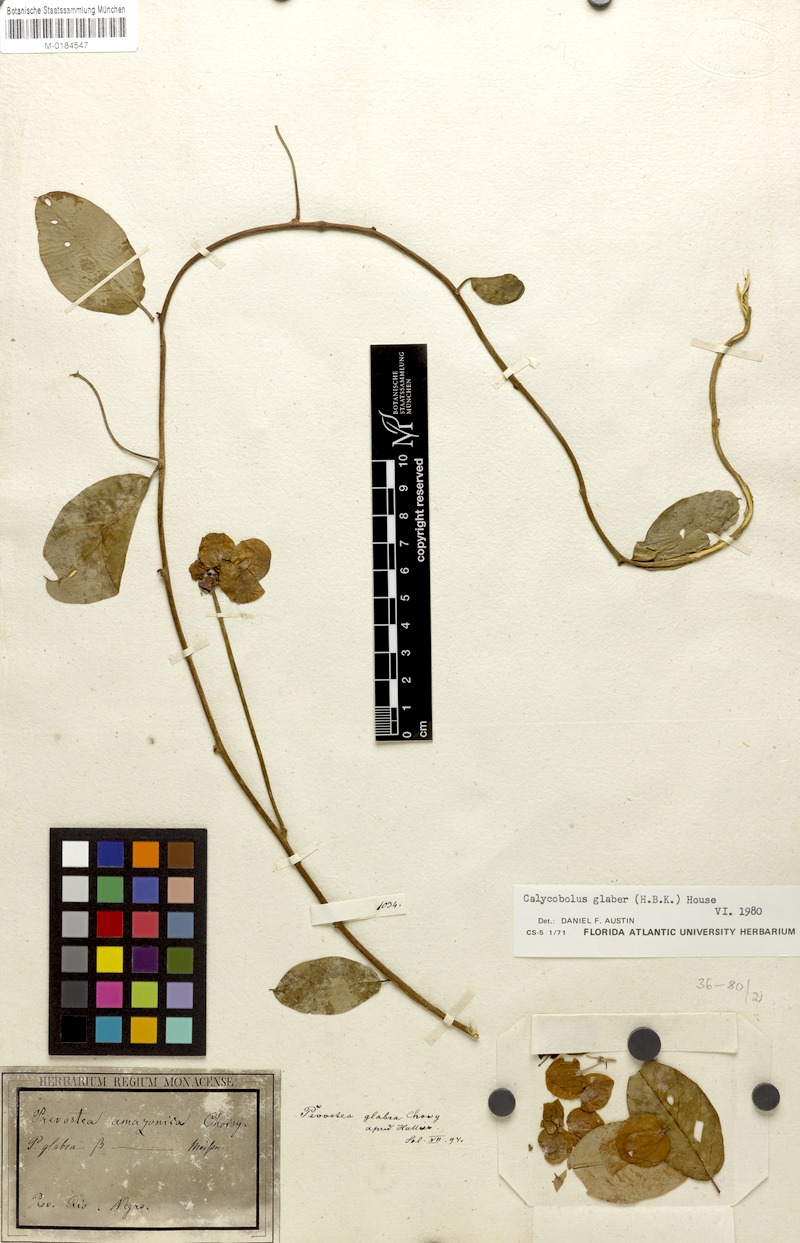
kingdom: Plantae
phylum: Tracheophyta
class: Magnoliopsida
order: Solanales
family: Convolvulaceae
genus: Calycobolus
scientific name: Calycobolus glaber
